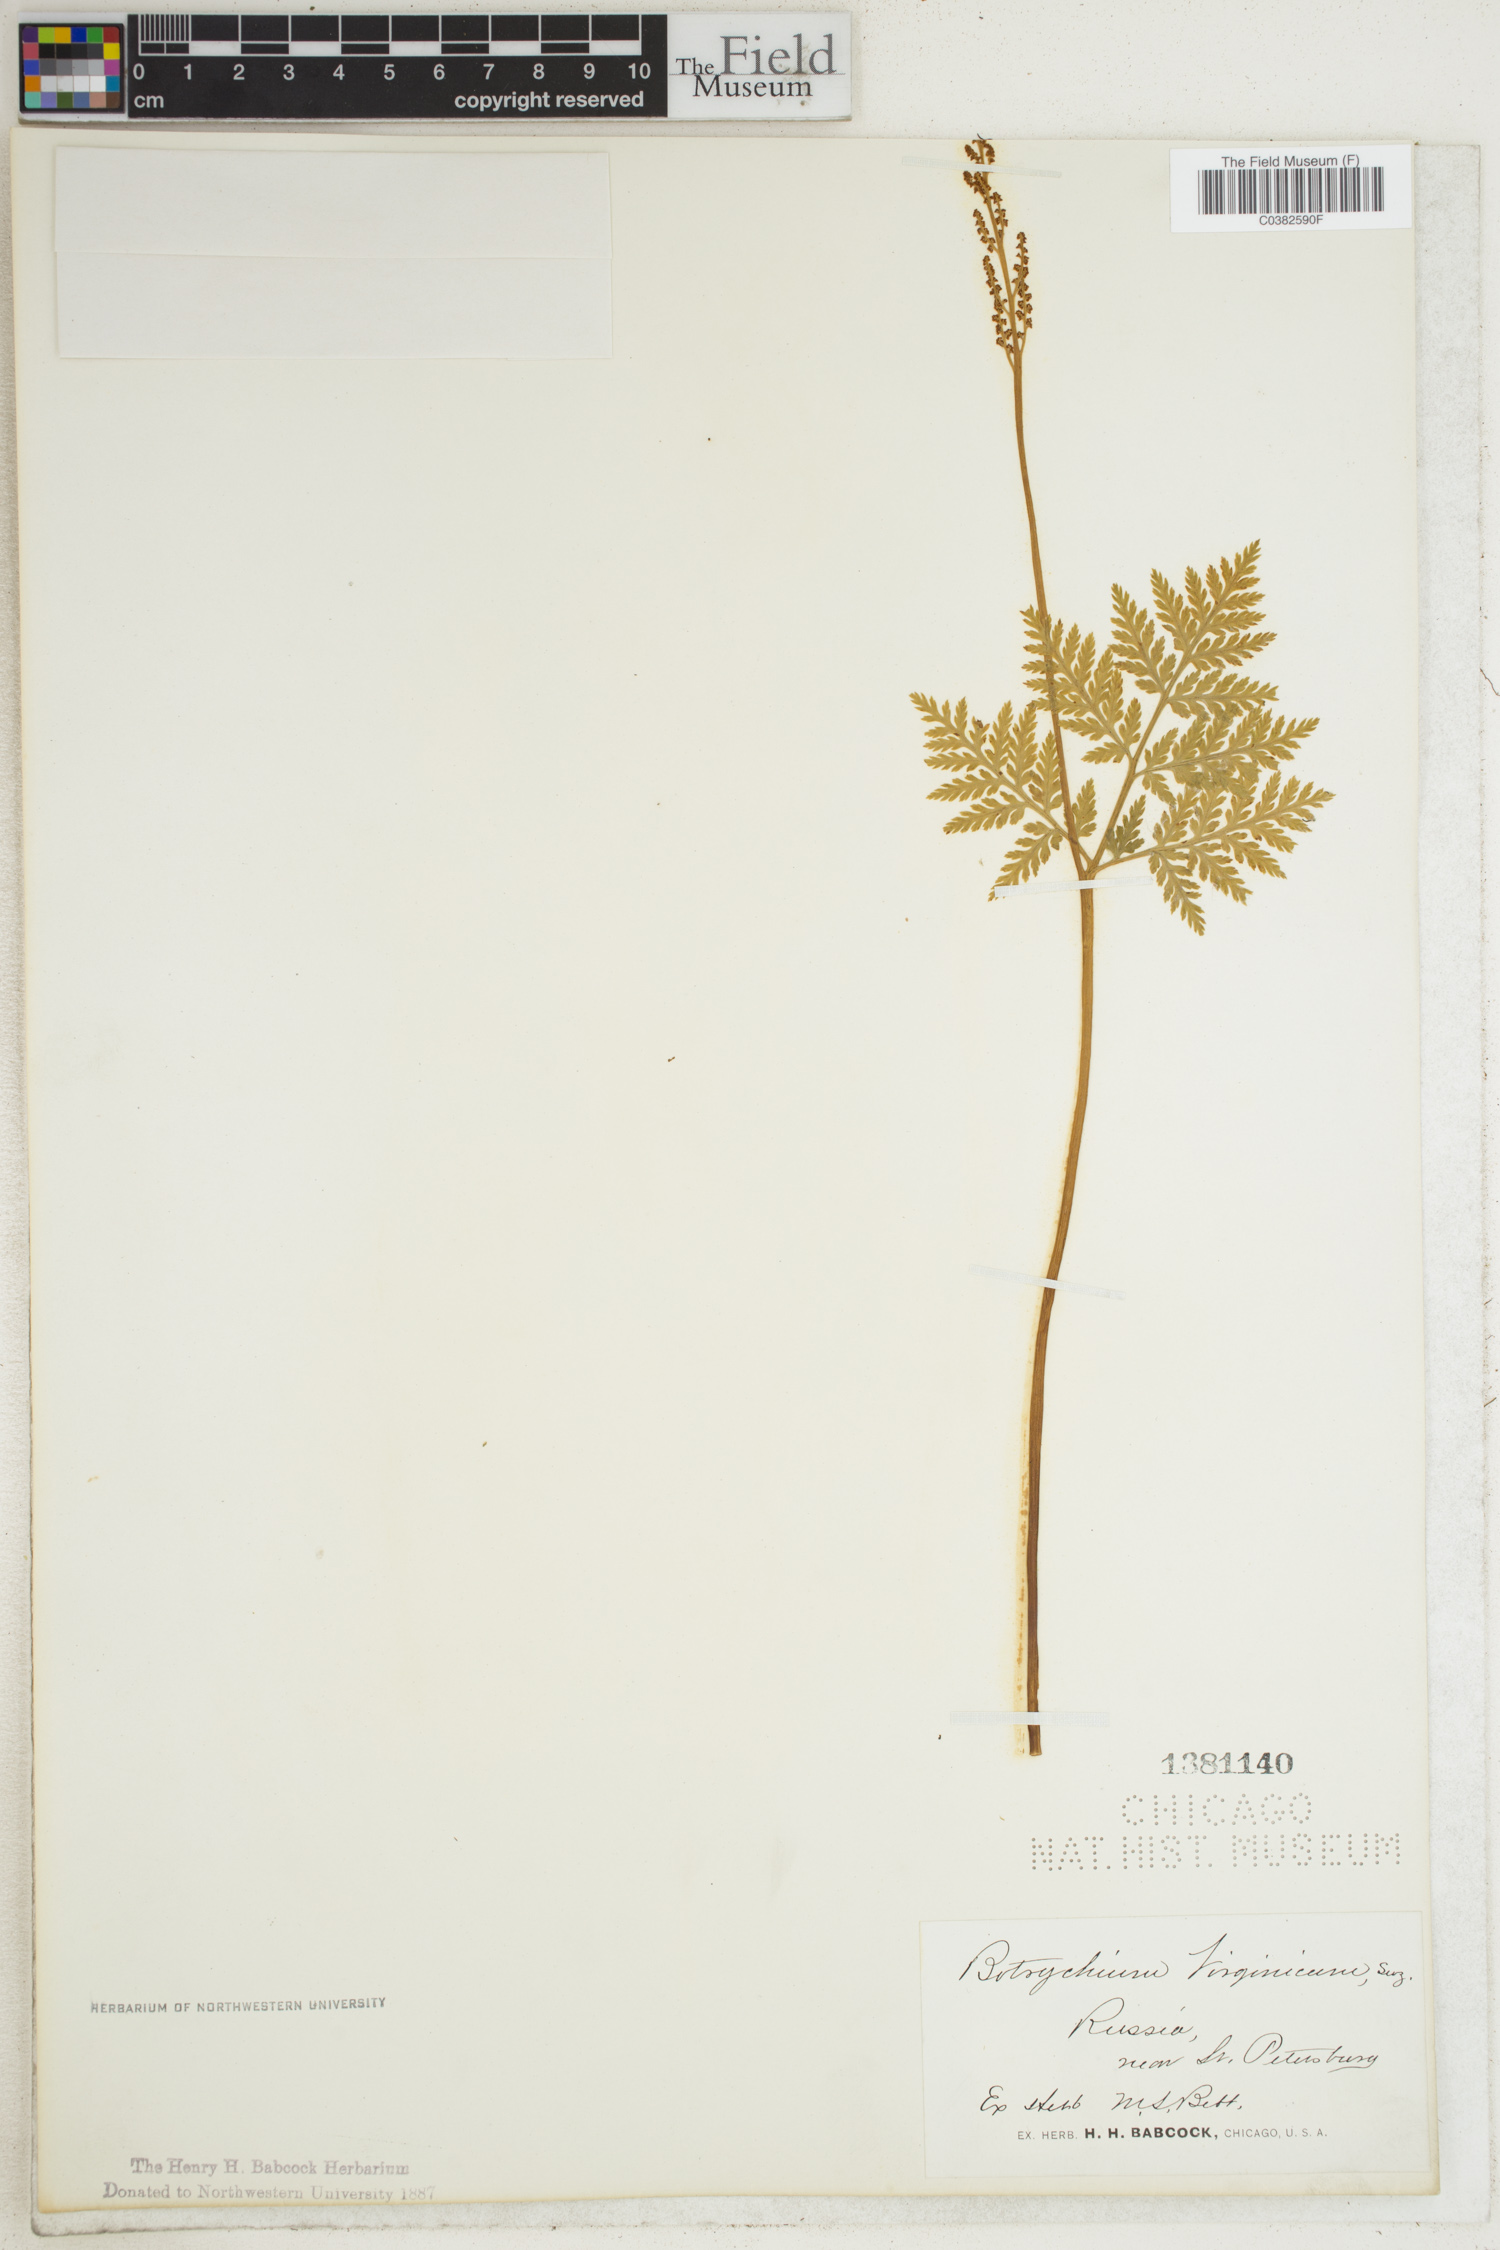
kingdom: Plantae
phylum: Tracheophyta
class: Polypodiopsida
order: Ophioglossales
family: Ophioglossaceae
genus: Botrypus
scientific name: Botrypus virginianus
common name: Common grapefern
